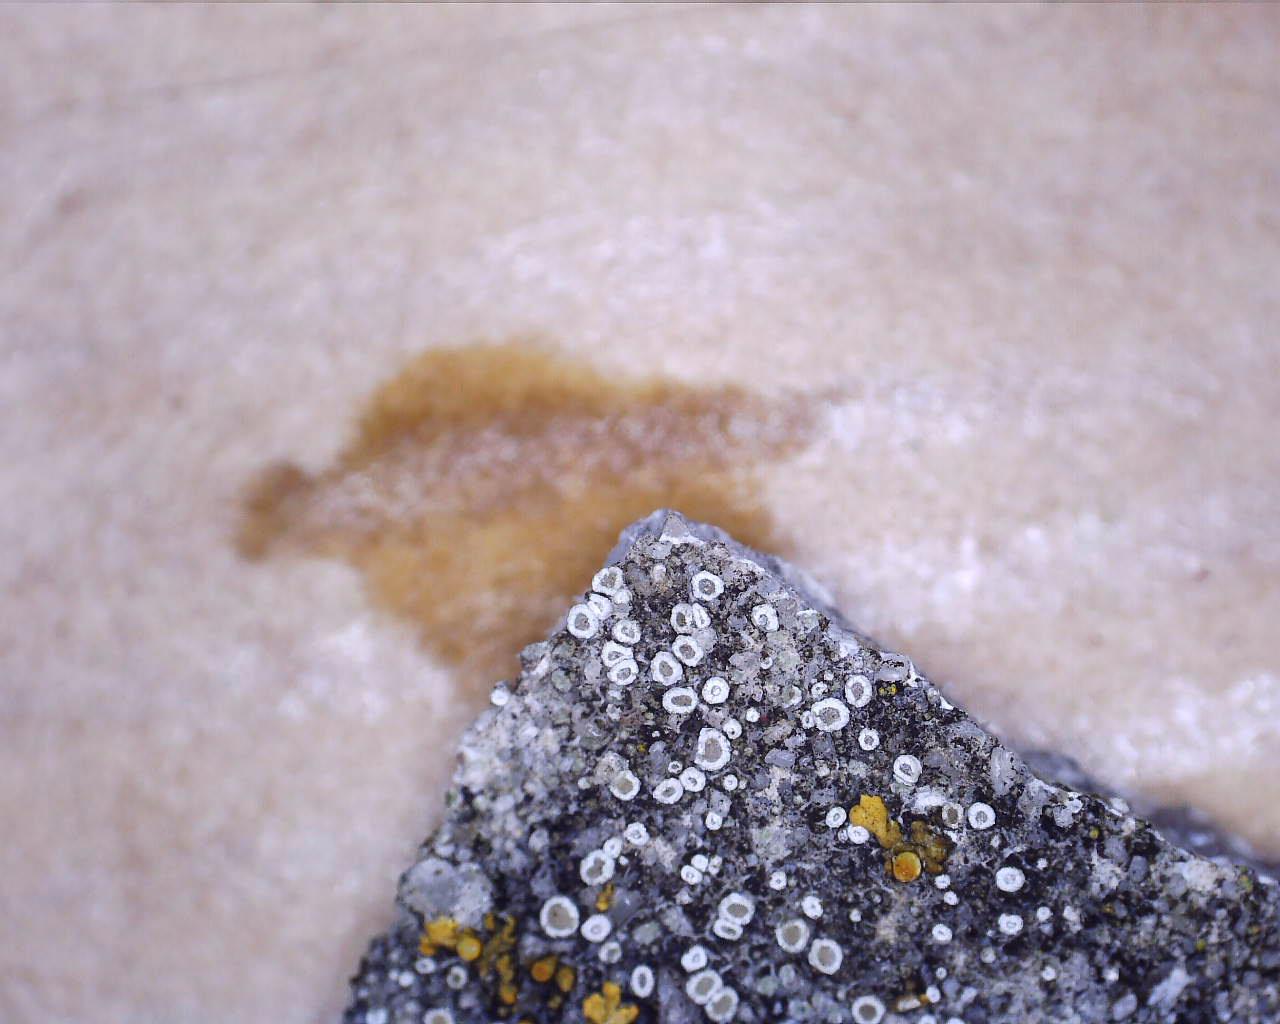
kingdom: Fungi
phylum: Ascomycota
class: Lecanoromycetes
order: Lecanorales
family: Lecanoraceae
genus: Polyozosia
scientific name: Polyozosia semipallida
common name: vinetorin-kantskivelav
